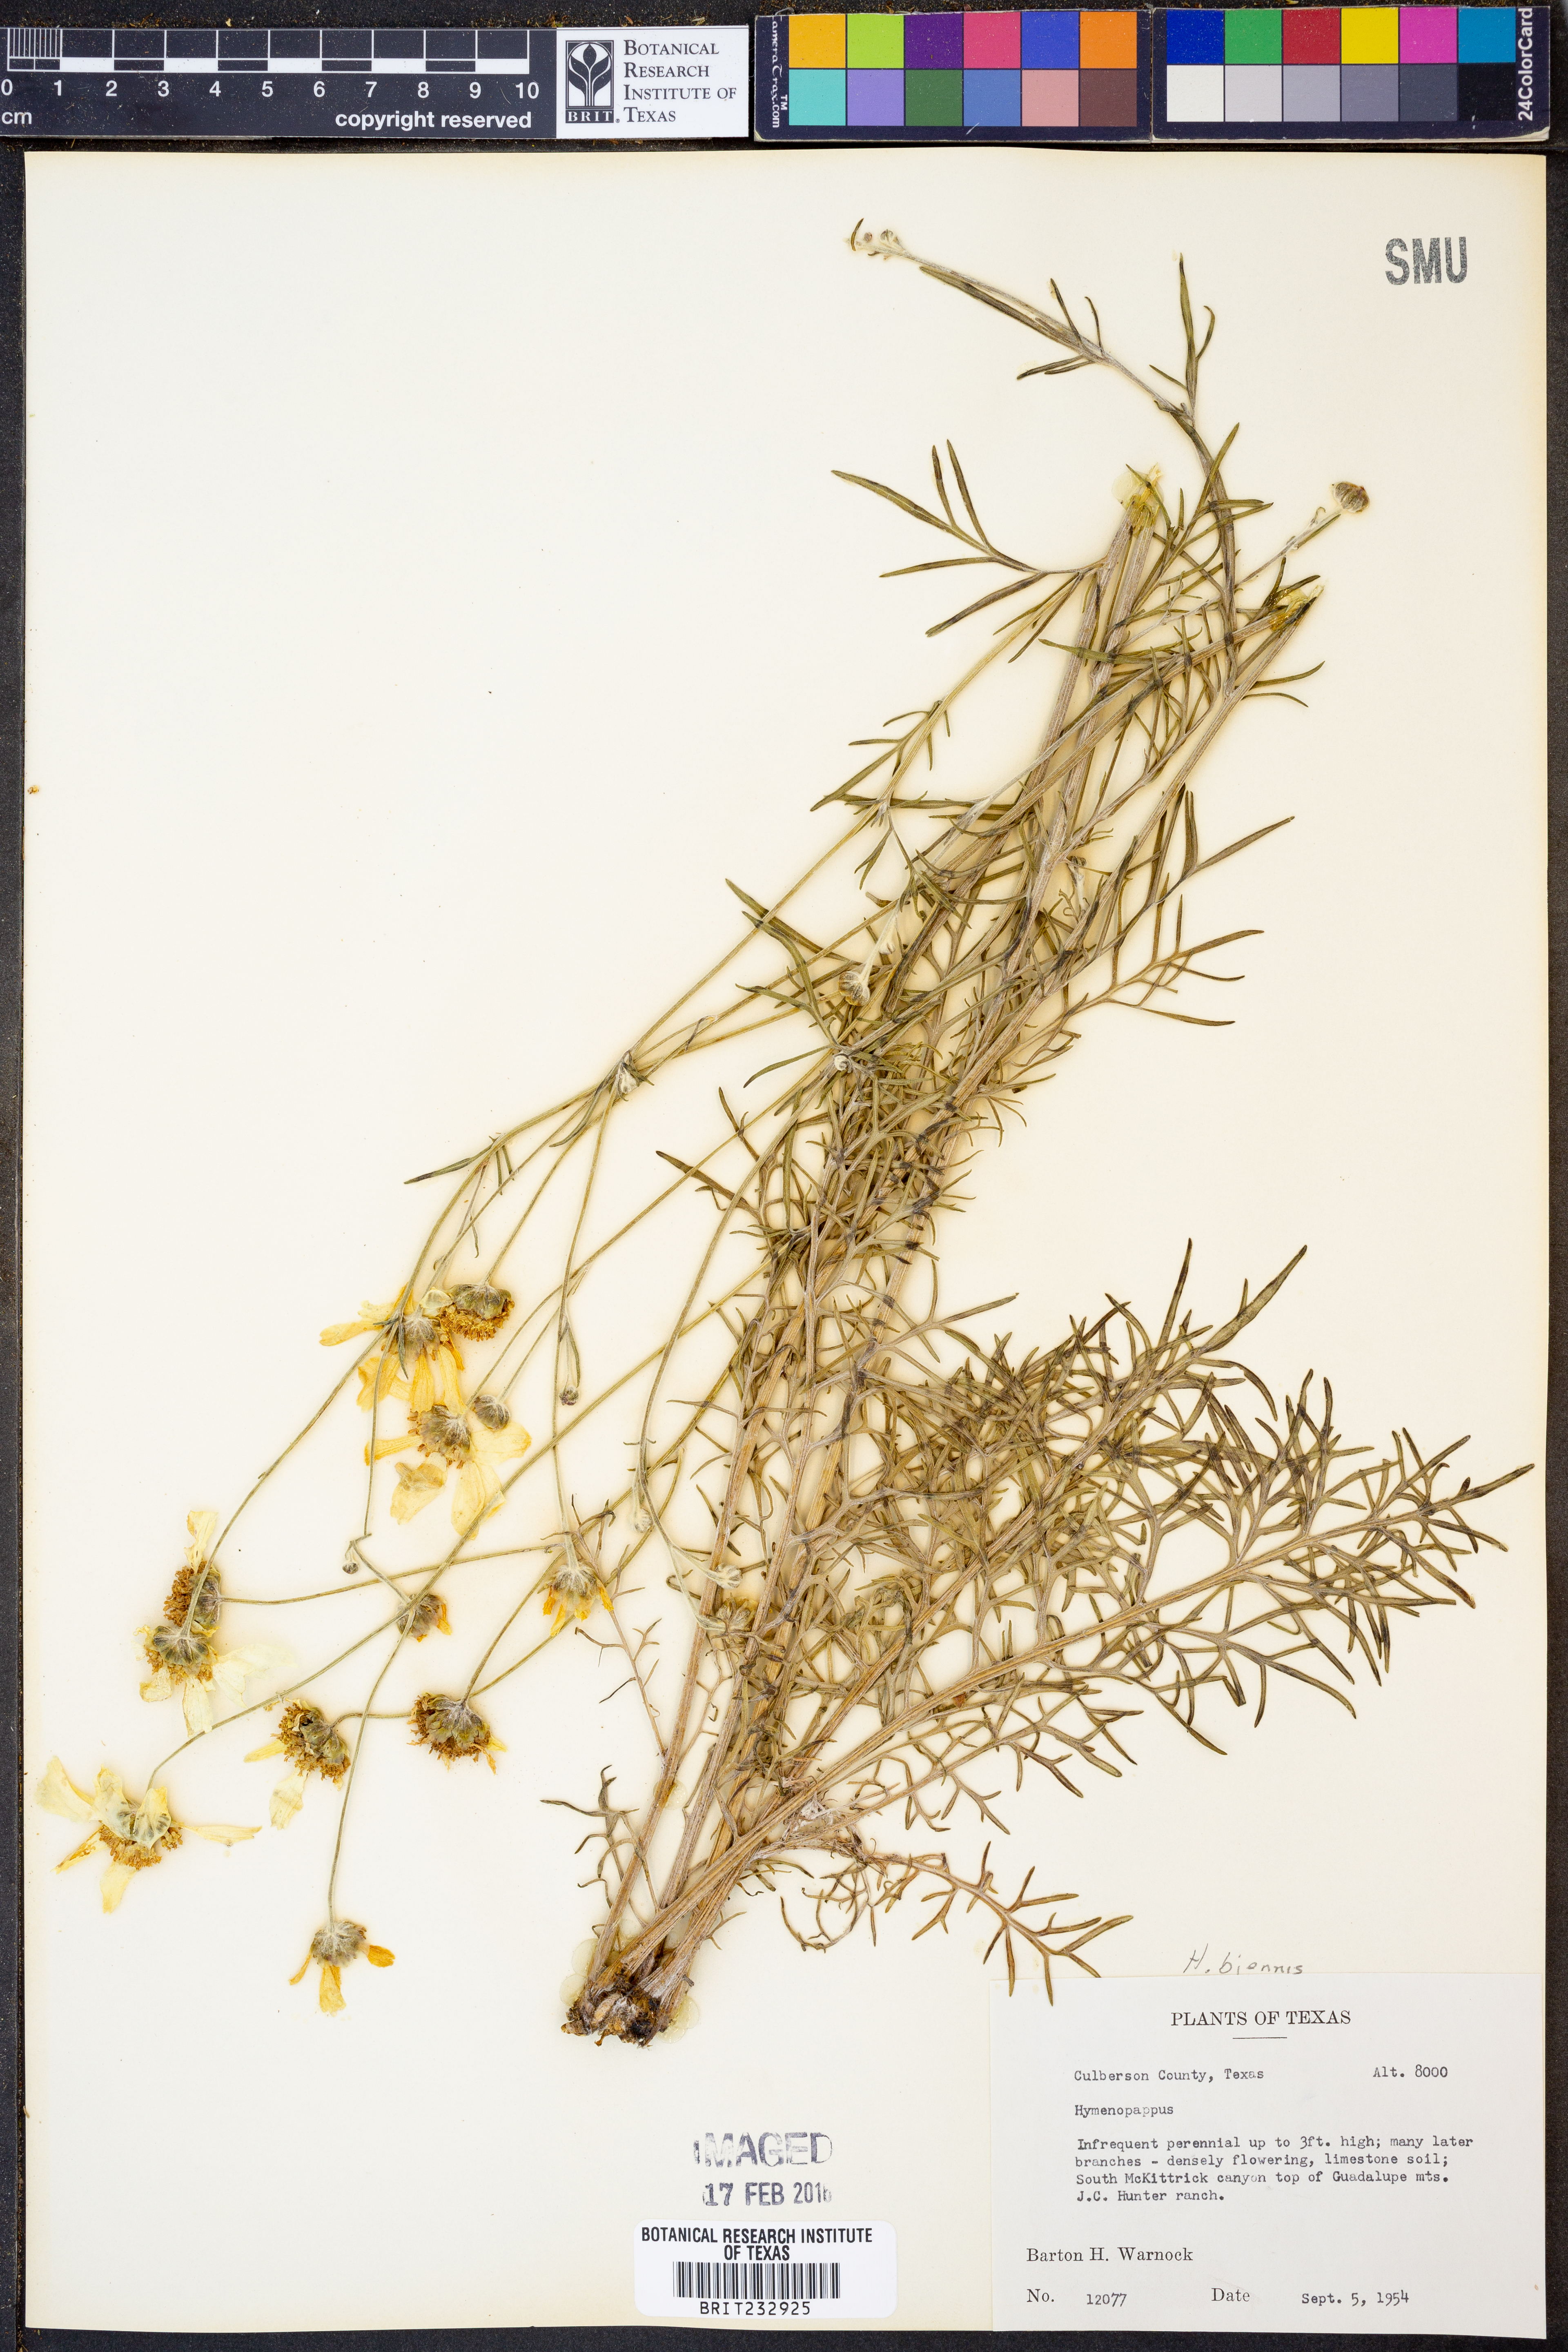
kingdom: Plantae
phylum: Tracheophyta
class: Magnoliopsida
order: Asterales
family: Asteraceae
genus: Hymenopappus
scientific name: Hymenopappus biennis
